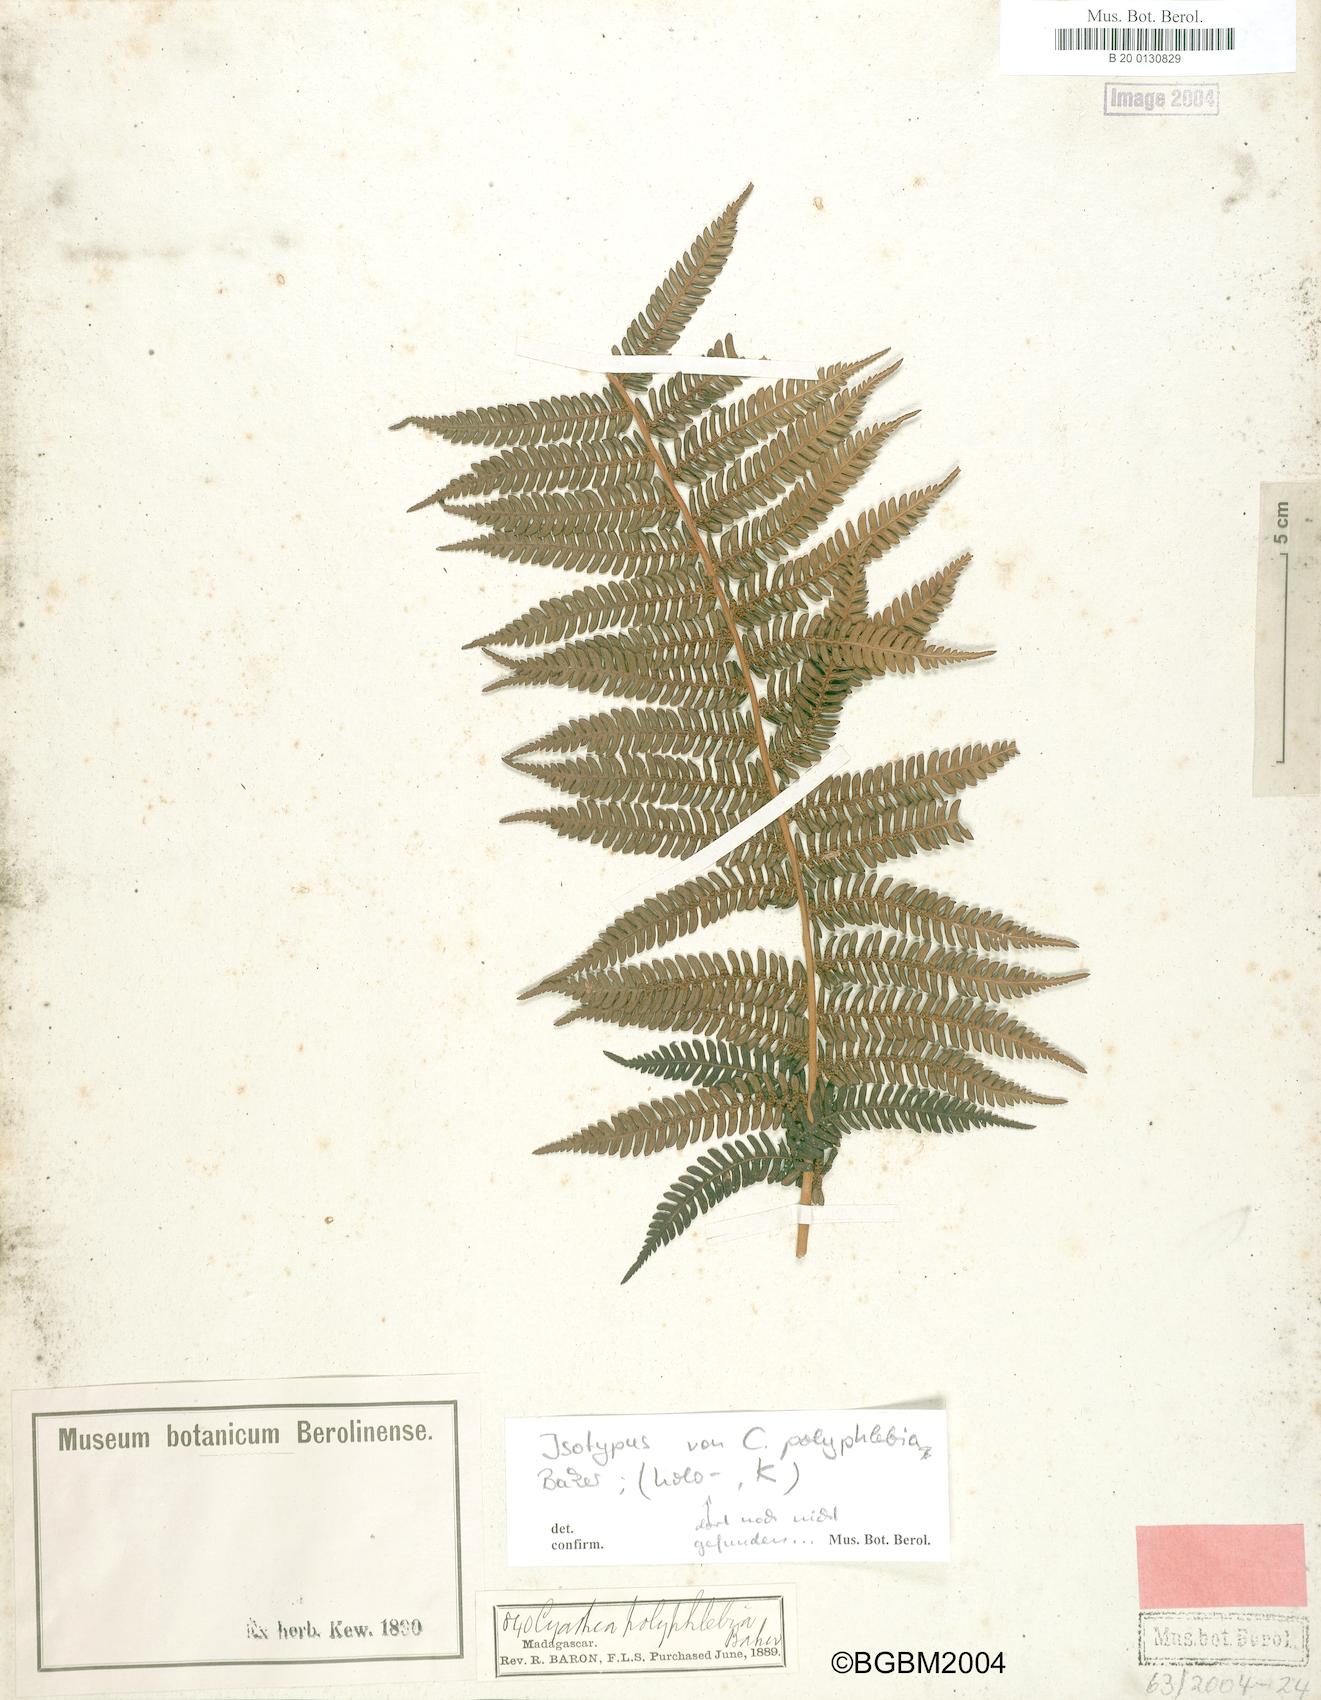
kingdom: Plantae
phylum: Tracheophyta
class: Polypodiopsida
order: Cyatheales
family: Cyatheaceae
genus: Alsophila
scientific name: Alsophila dregei
